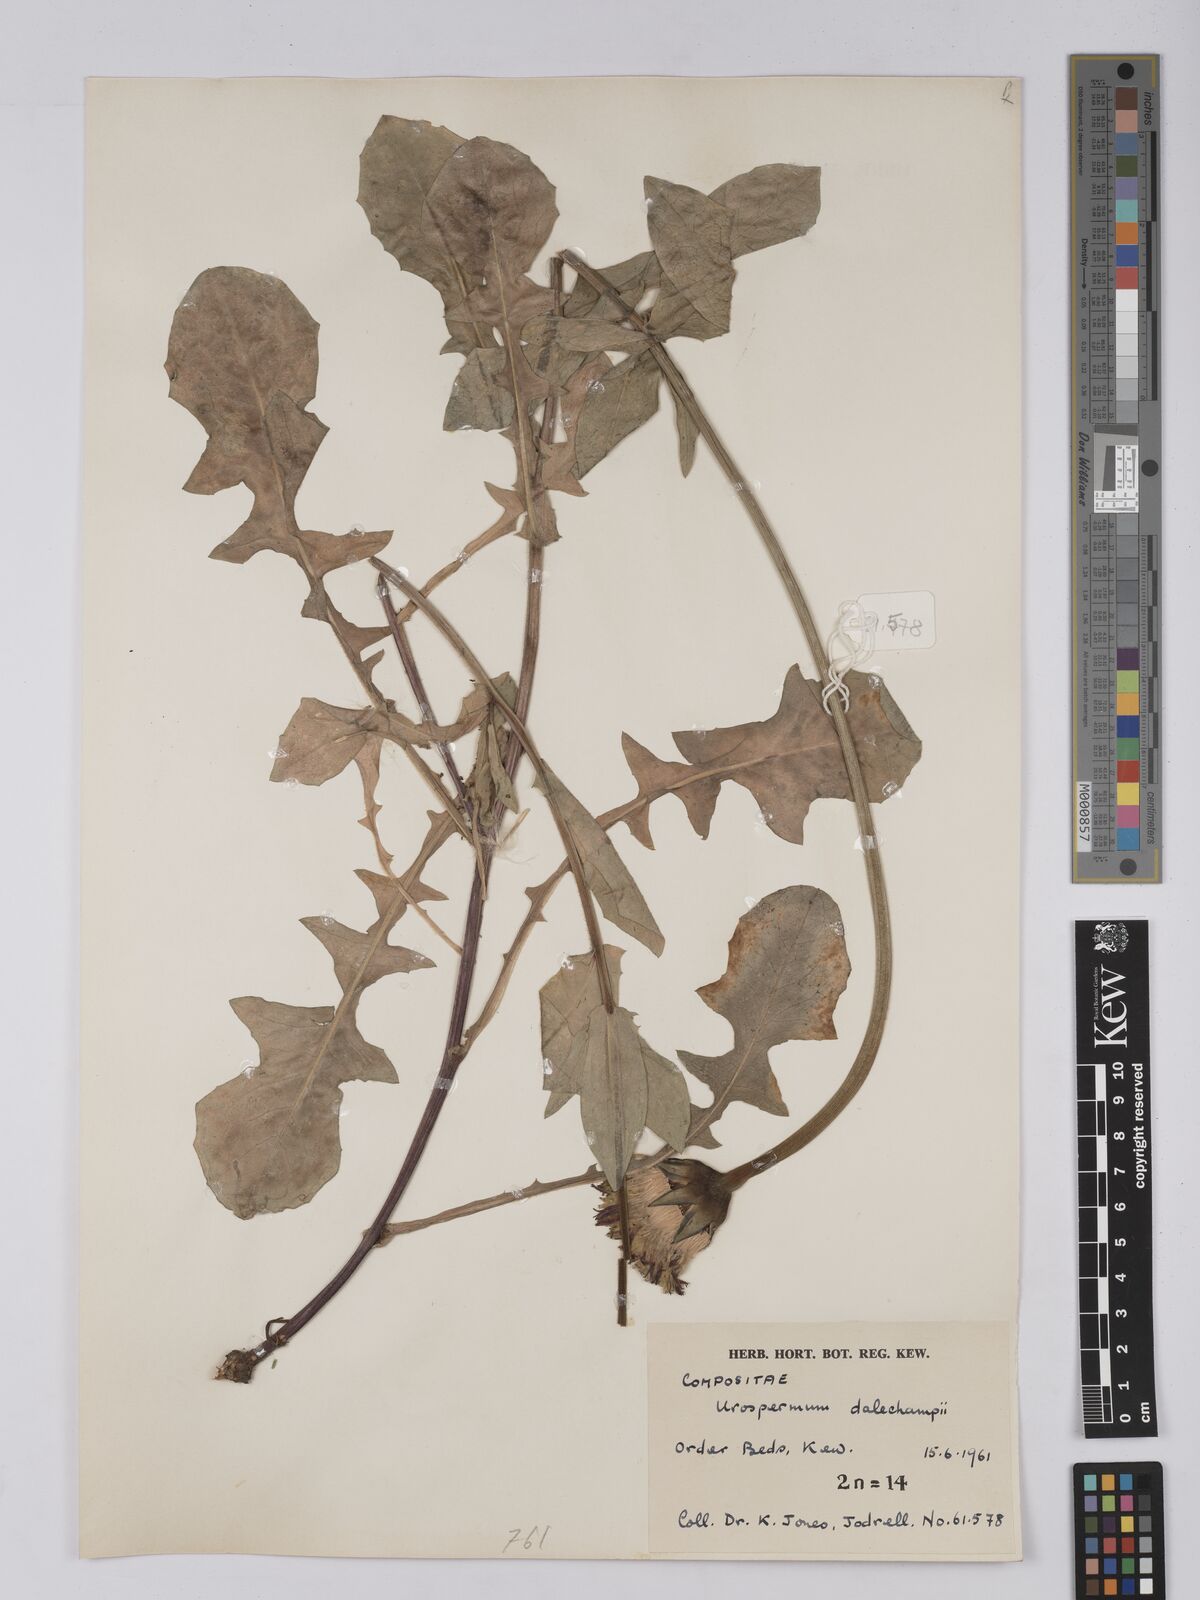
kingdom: Plantae
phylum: Tracheophyta
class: Magnoliopsida
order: Asterales
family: Asteraceae
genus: Urospermum
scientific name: Urospermum dalechampii
